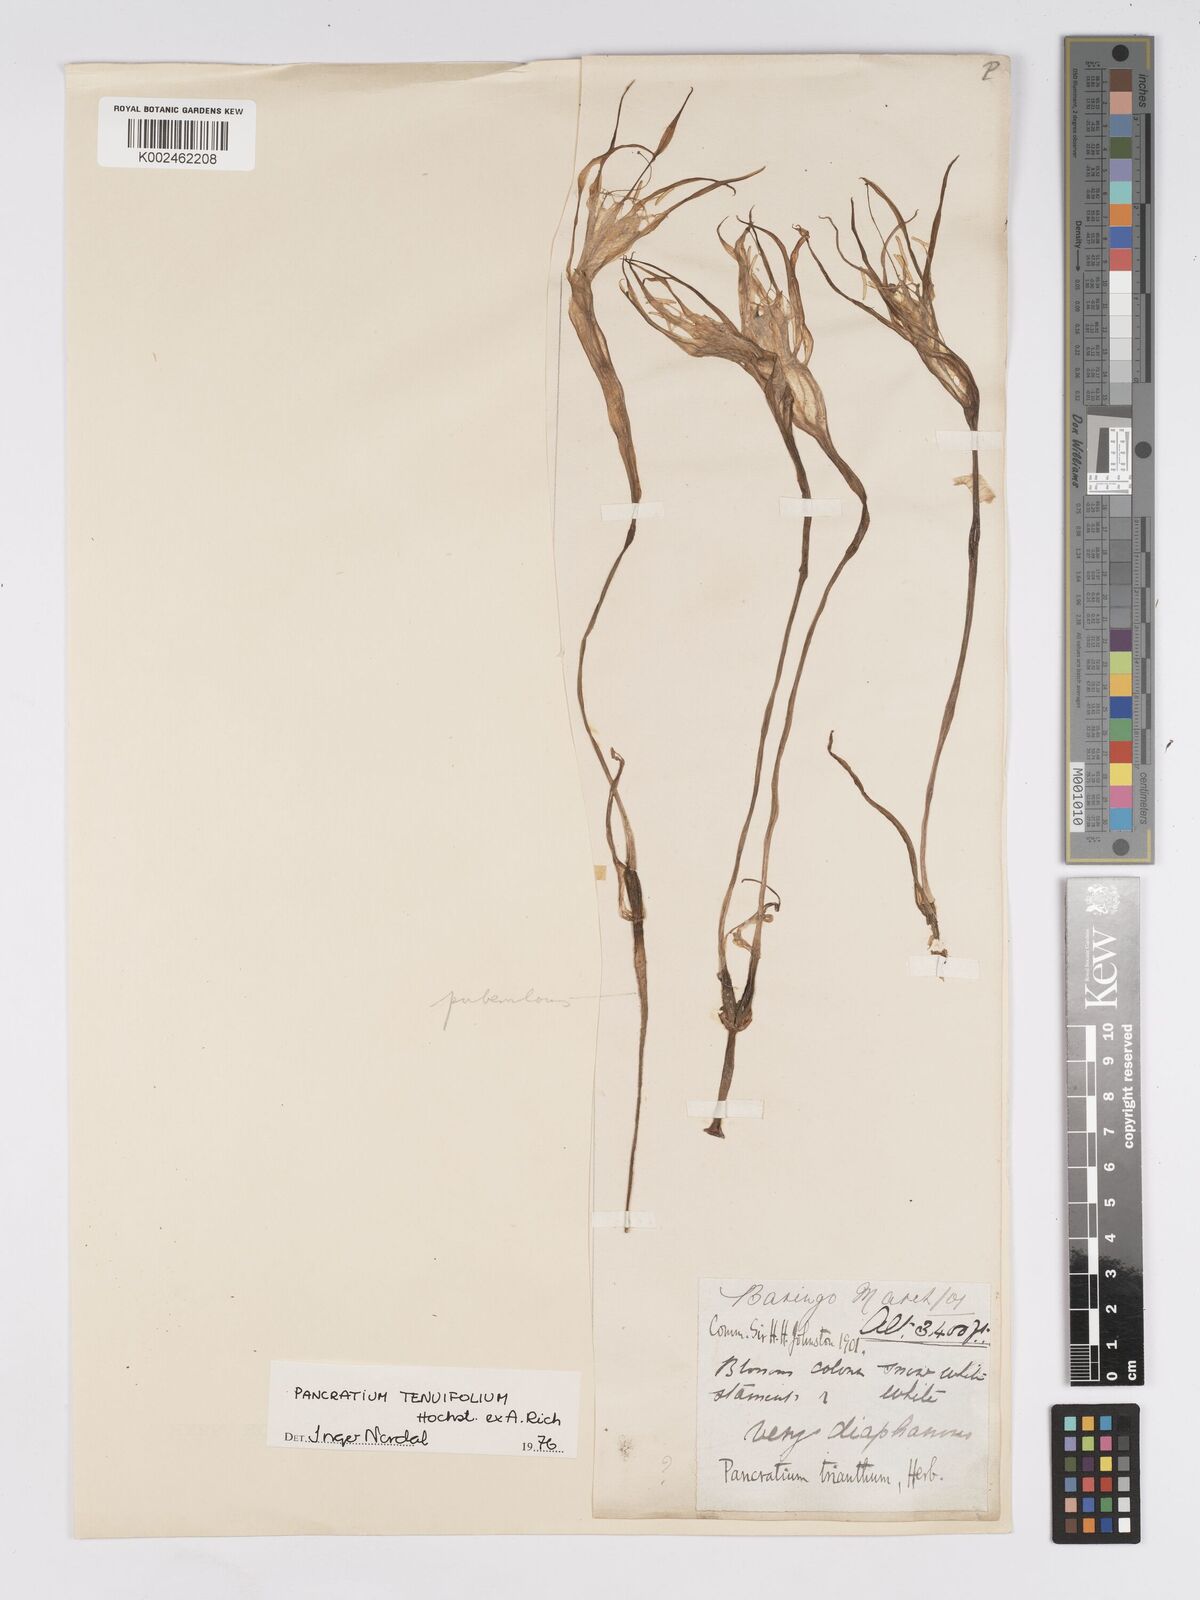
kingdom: Plantae
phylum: Tracheophyta
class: Liliopsida
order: Asparagales
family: Amaryllidaceae
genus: Pancratium
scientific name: Pancratium tenuifolium
